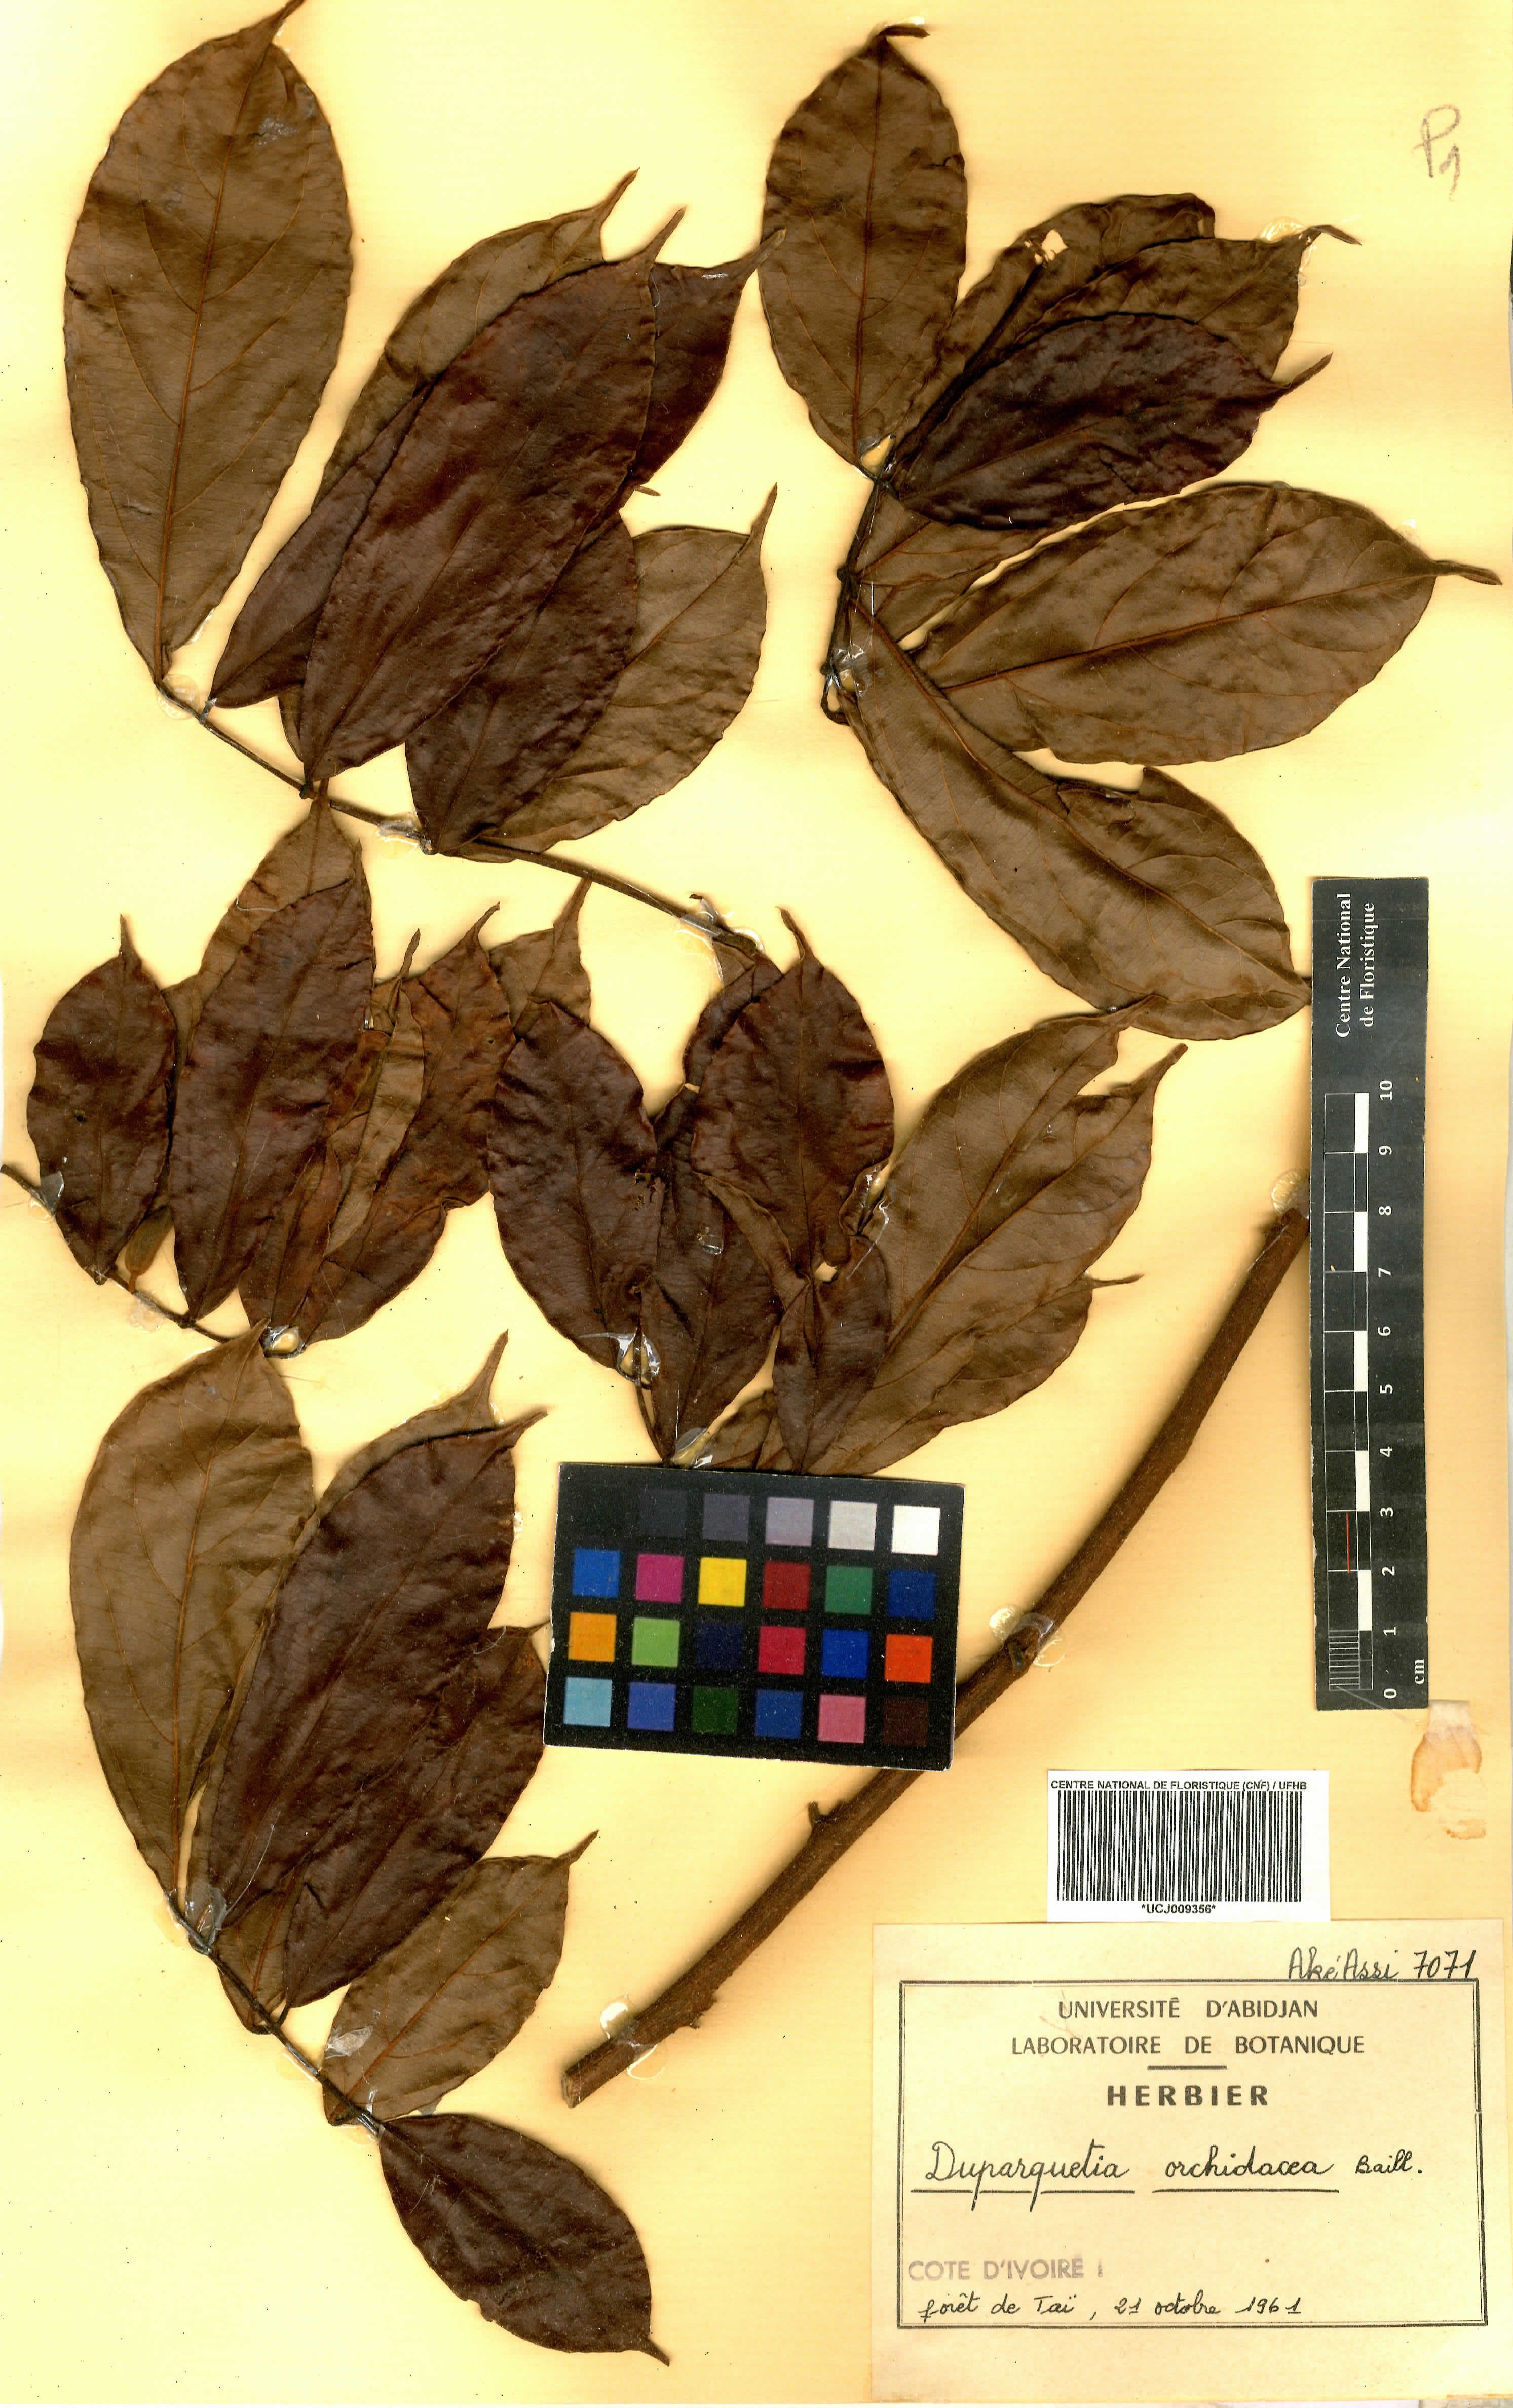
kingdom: Plantae
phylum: Tracheophyta
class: Magnoliopsida
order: Fabales
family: Fabaceae
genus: Duparquetia
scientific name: Duparquetia orchidacea
